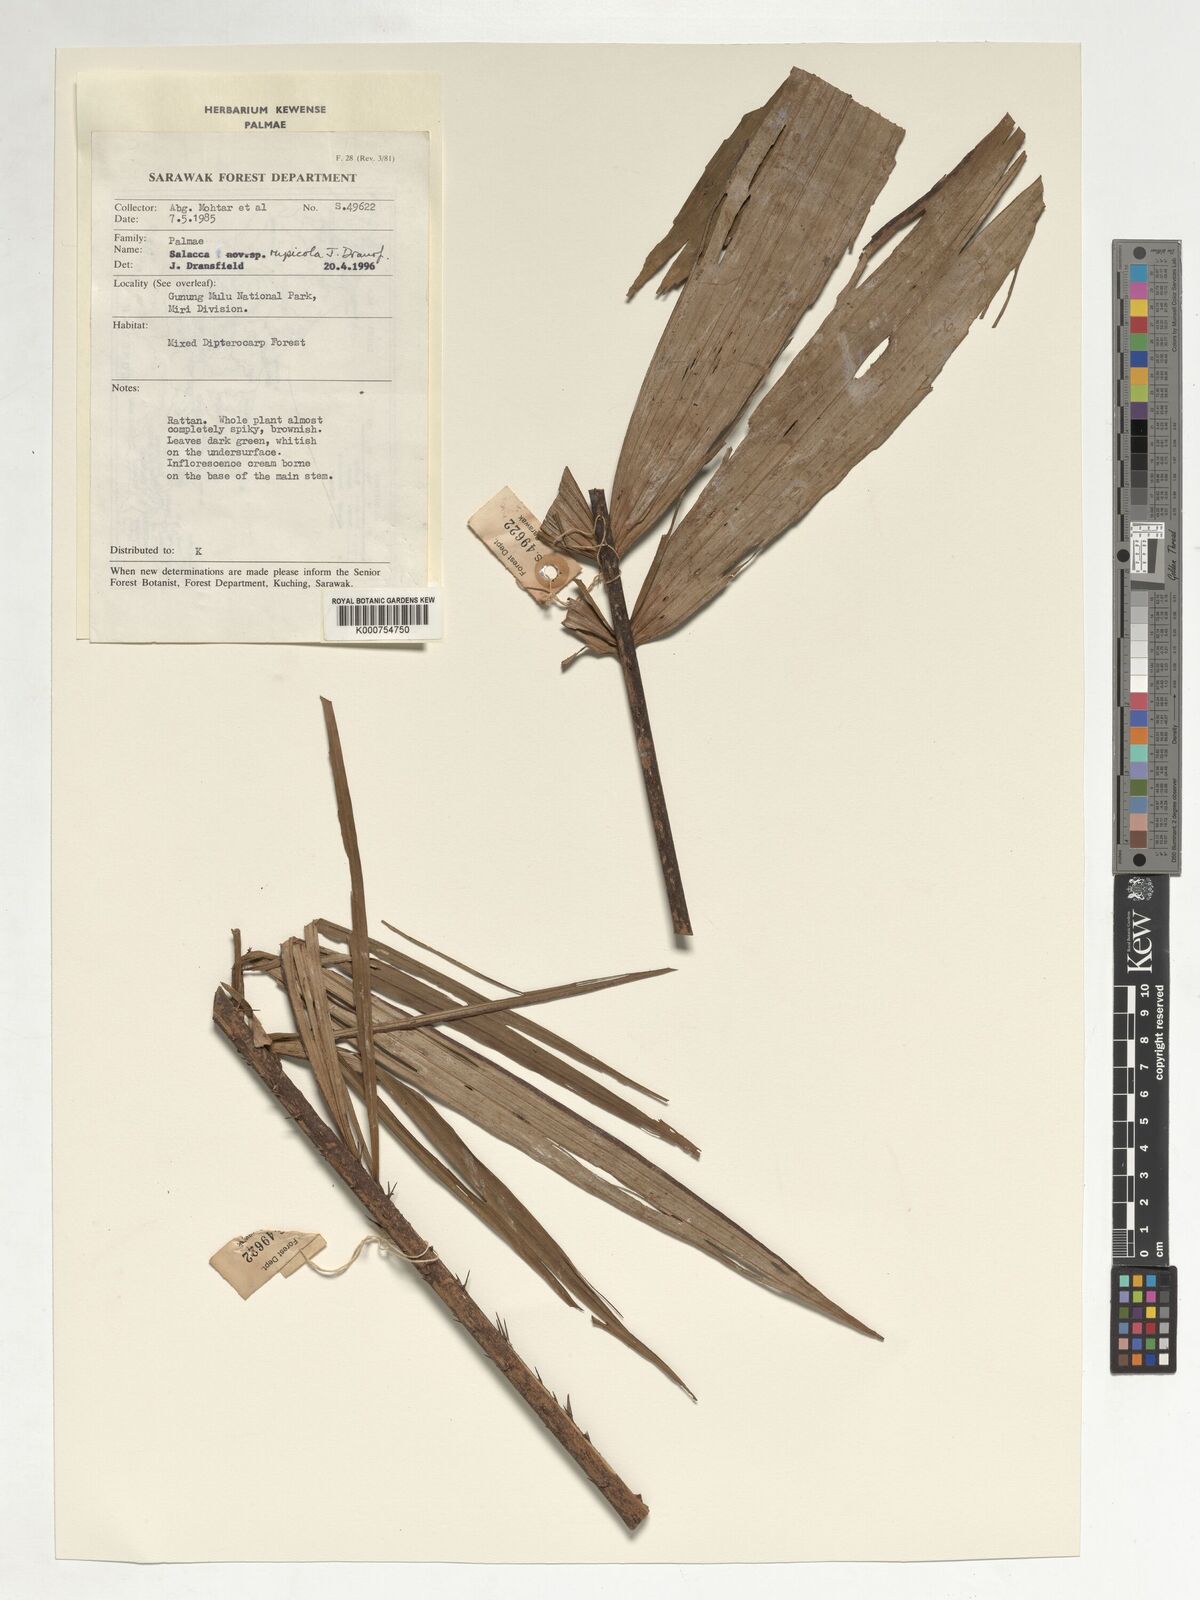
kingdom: Plantae
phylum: Tracheophyta
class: Liliopsida
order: Arecales
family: Arecaceae
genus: Salacca
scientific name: Salacca rupicola
